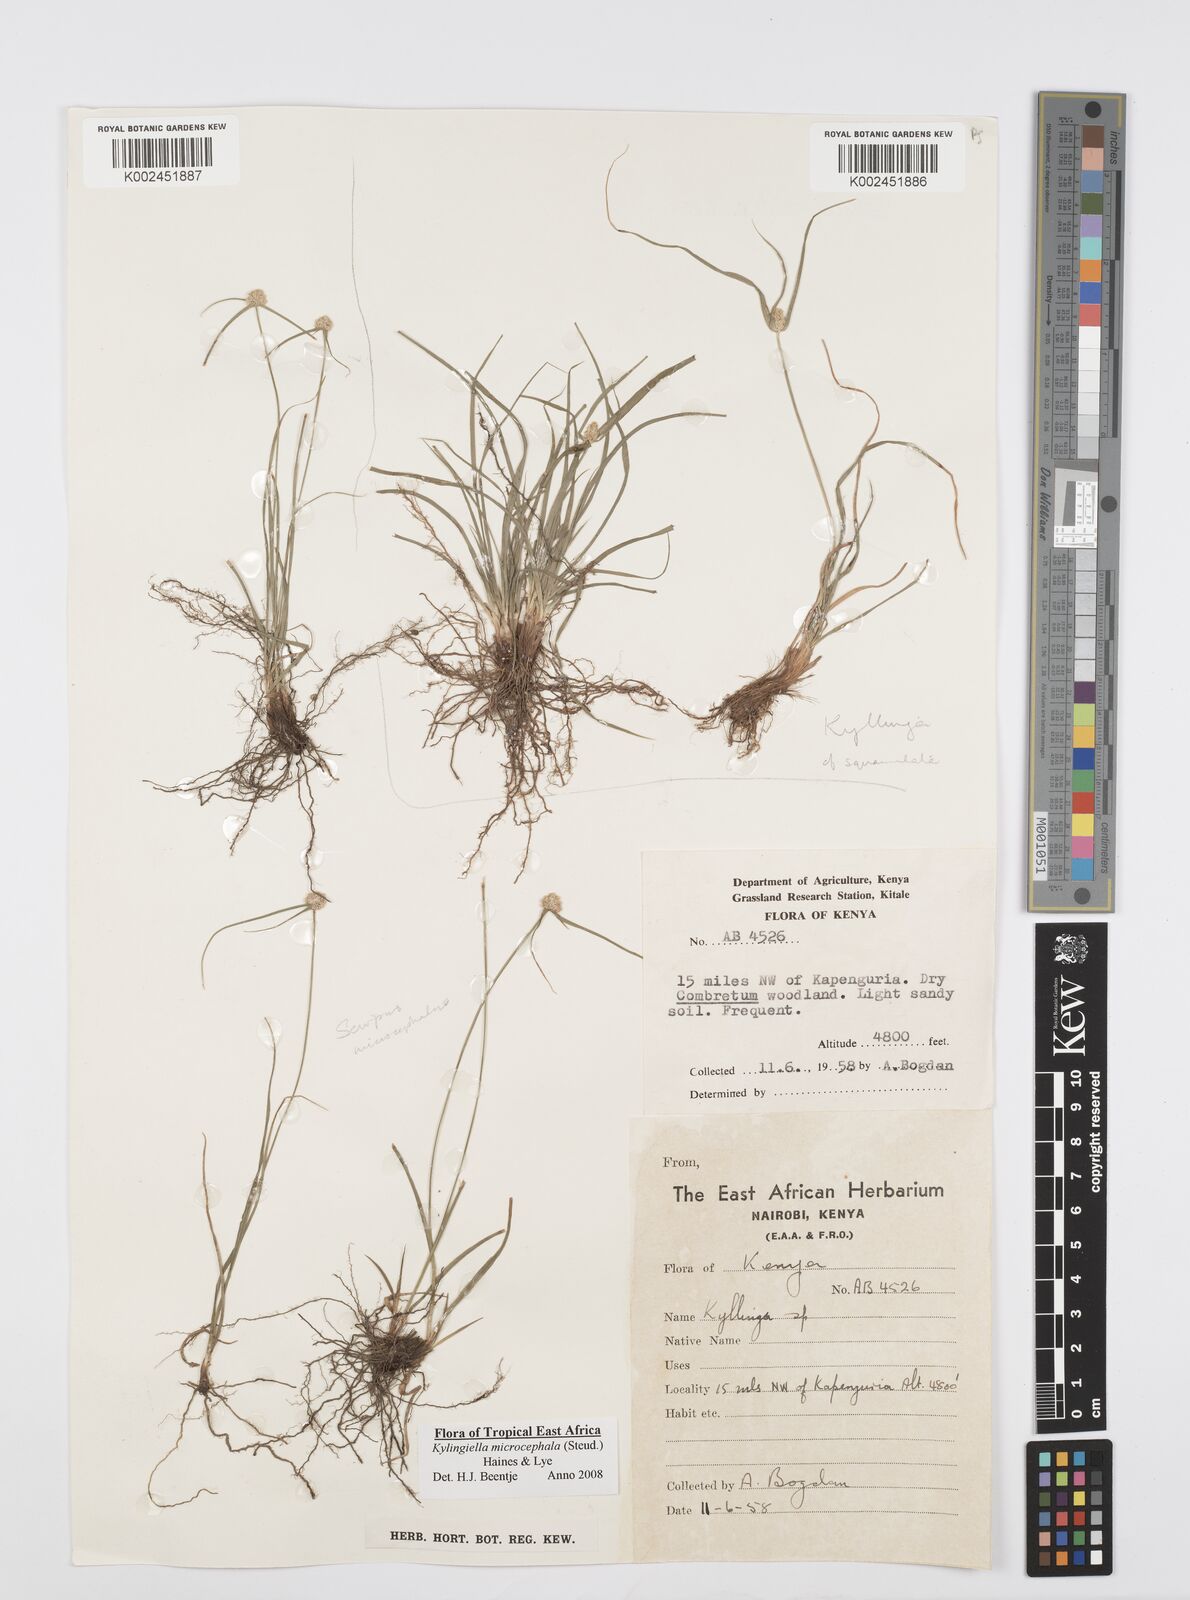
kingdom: Plantae
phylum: Tracheophyta
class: Liliopsida
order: Poales
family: Cyperaceae
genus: Cyperus
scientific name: Cyperus microcephalus
